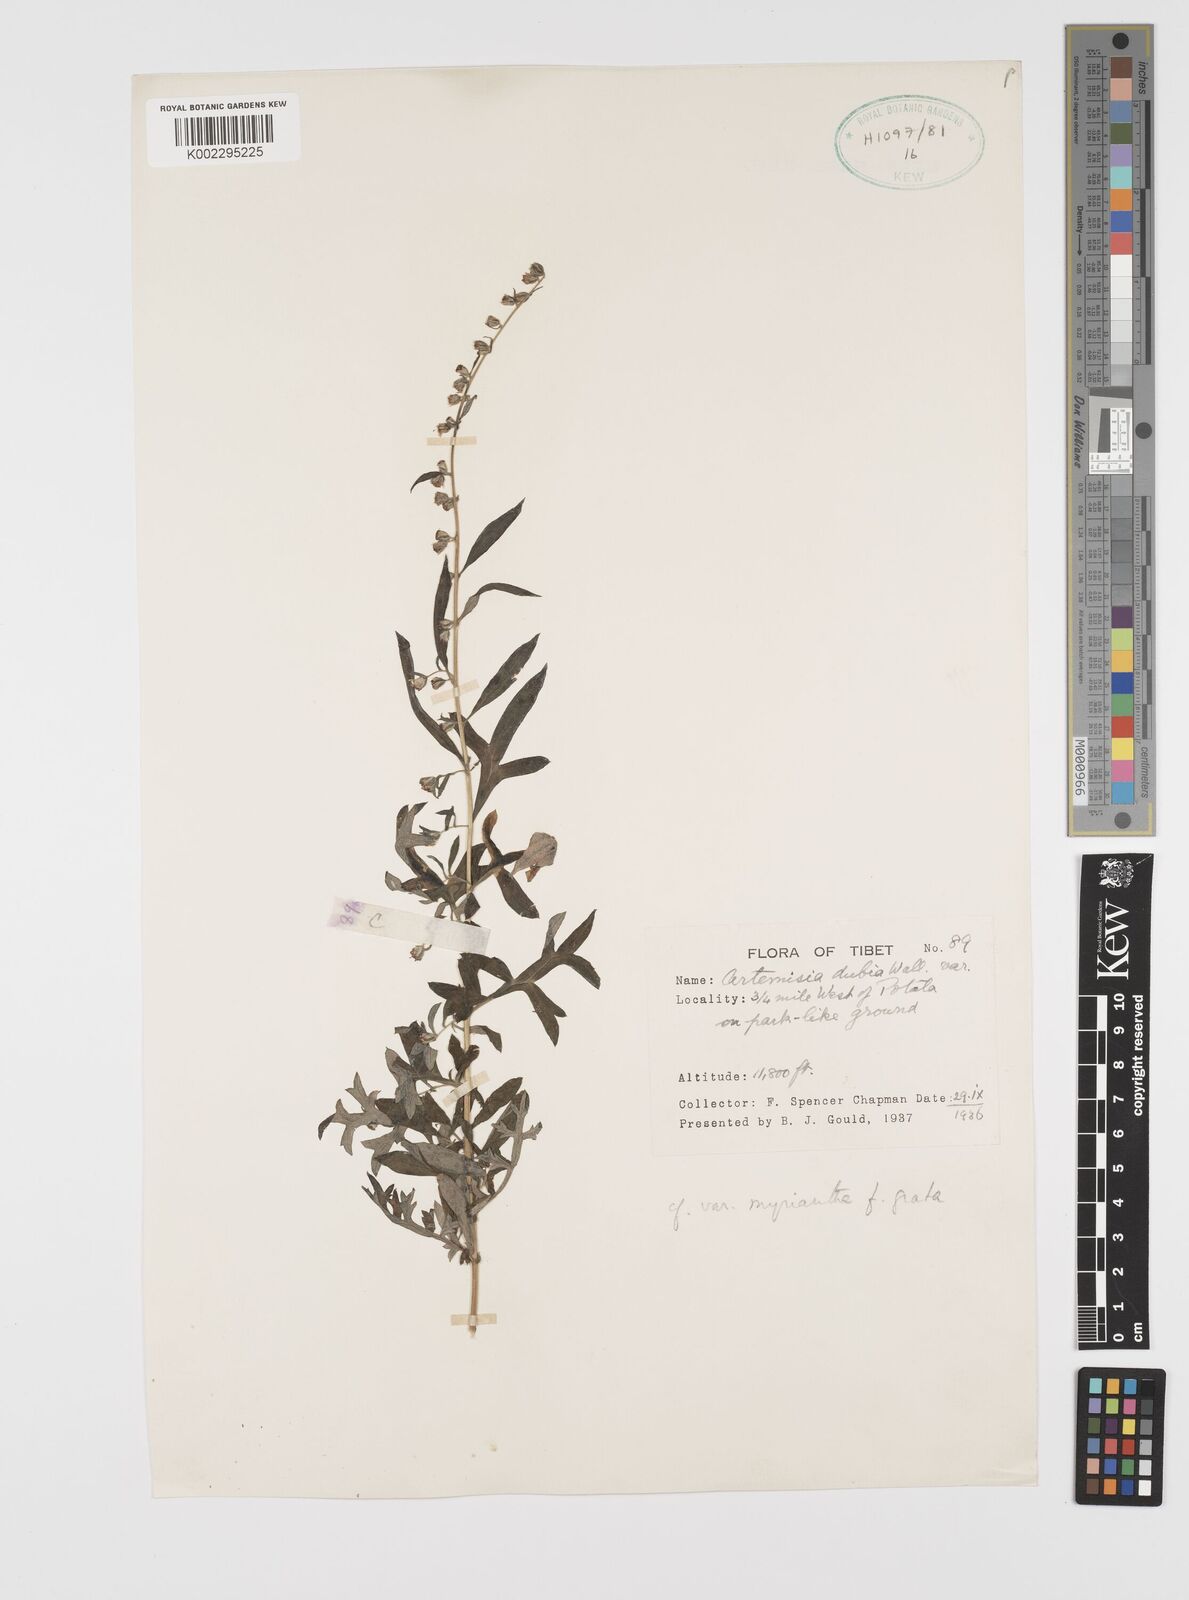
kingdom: Plantae
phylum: Tracheophyta
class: Magnoliopsida
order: Asterales
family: Asteraceae
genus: Artemisia
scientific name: Artemisia robusta
